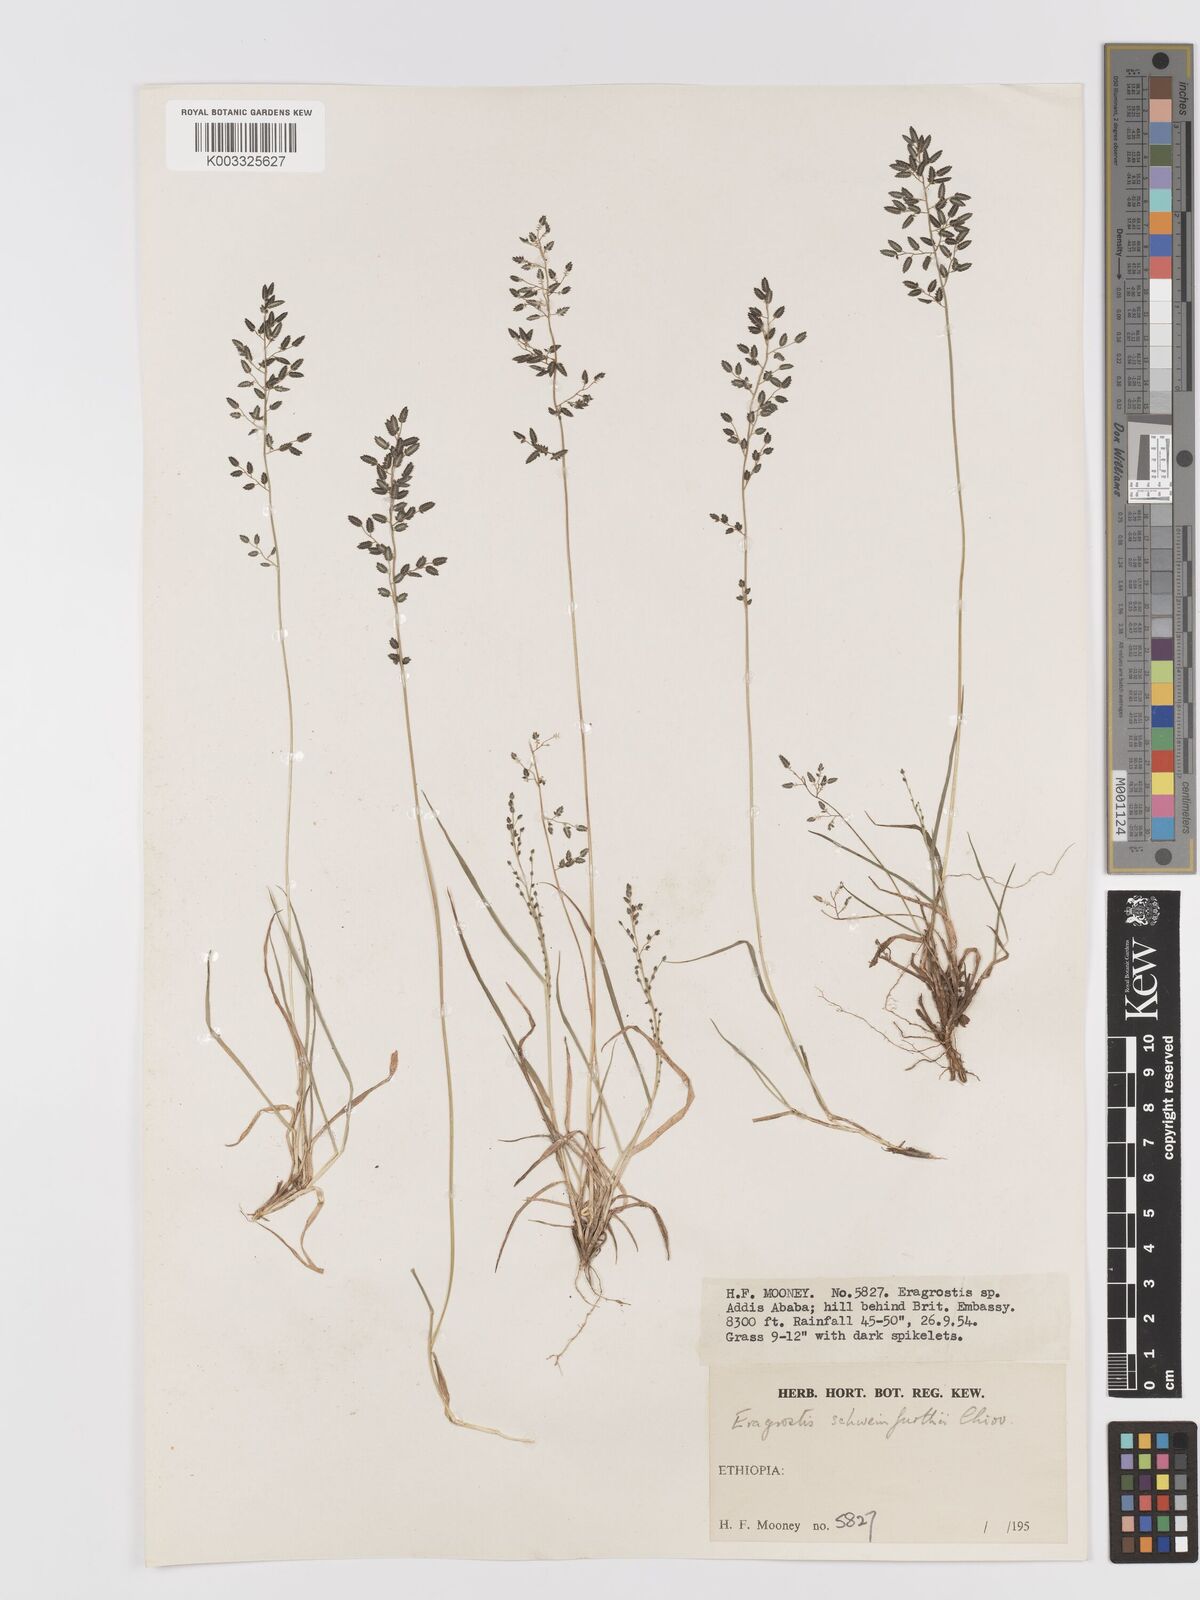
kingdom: Plantae
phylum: Tracheophyta
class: Liliopsida
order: Poales
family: Poaceae
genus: Eragrostis
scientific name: Eragrostis schweinfurthii
